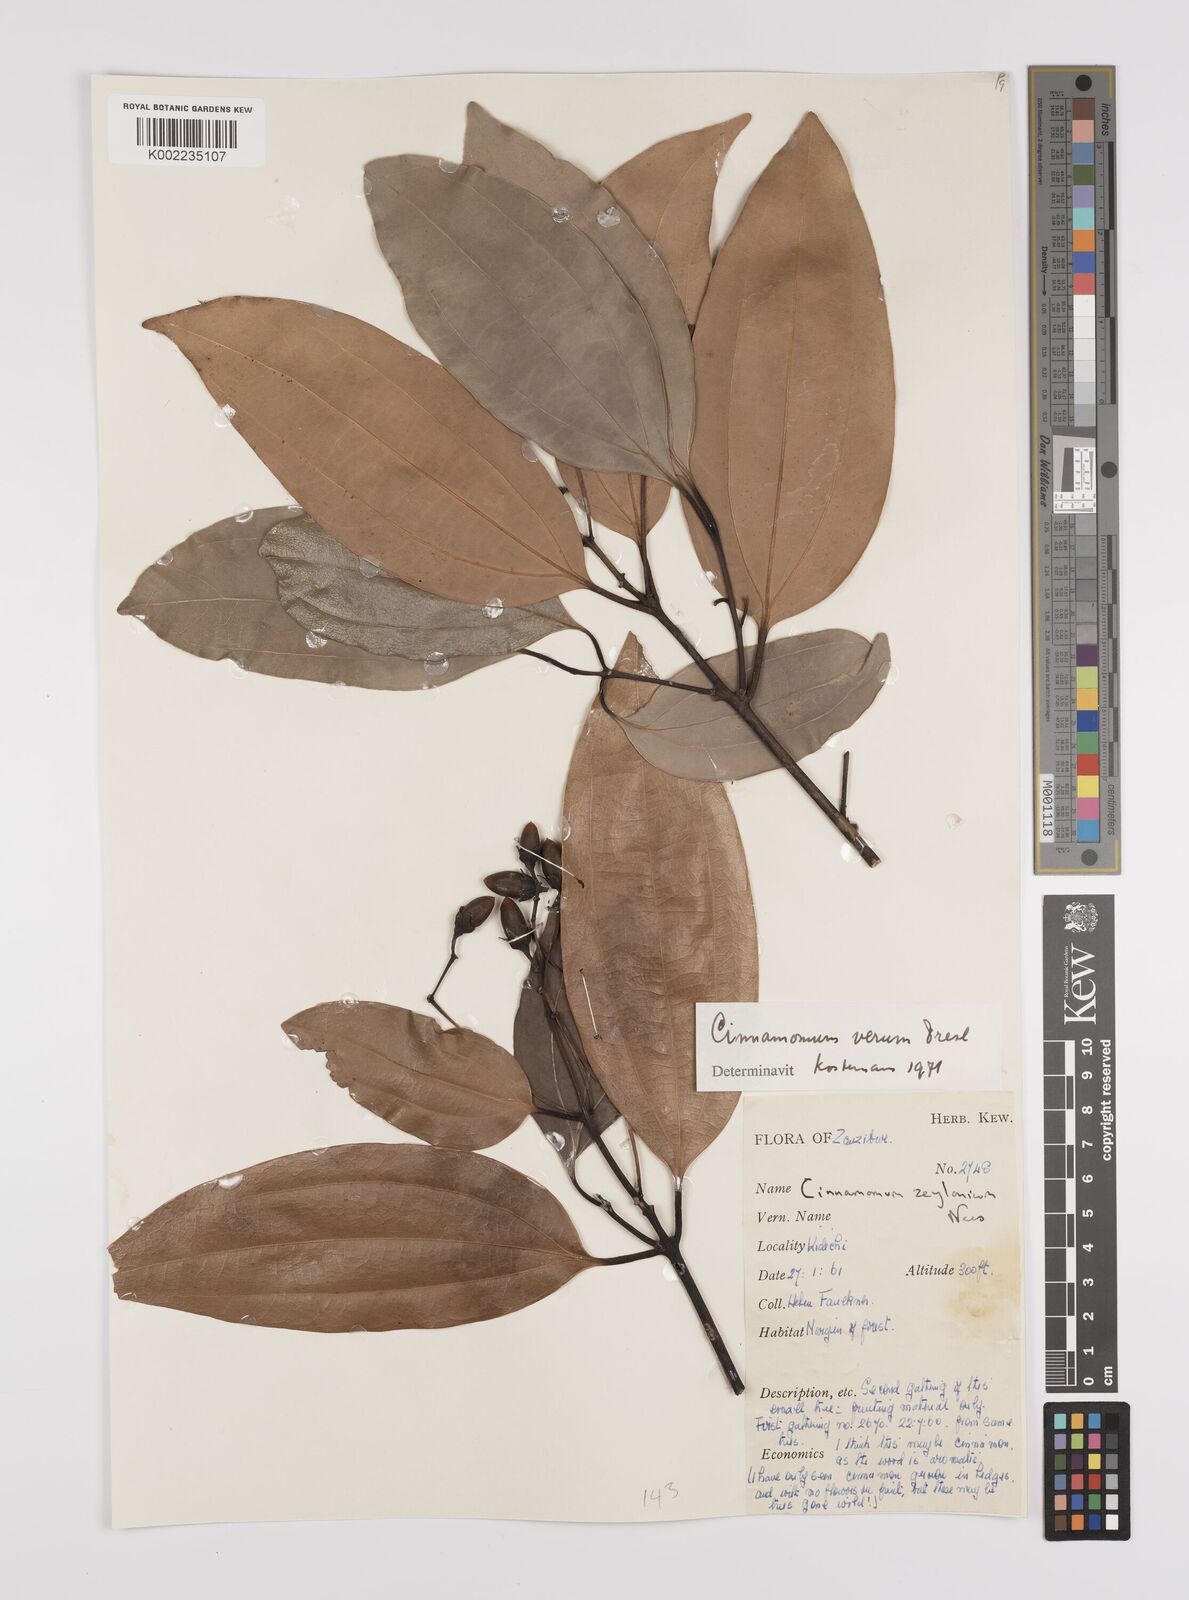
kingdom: Plantae
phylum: Tracheophyta
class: Magnoliopsida
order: Laurales
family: Lauraceae
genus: Cinnamomum
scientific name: Cinnamomum verum
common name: Cinnamon
